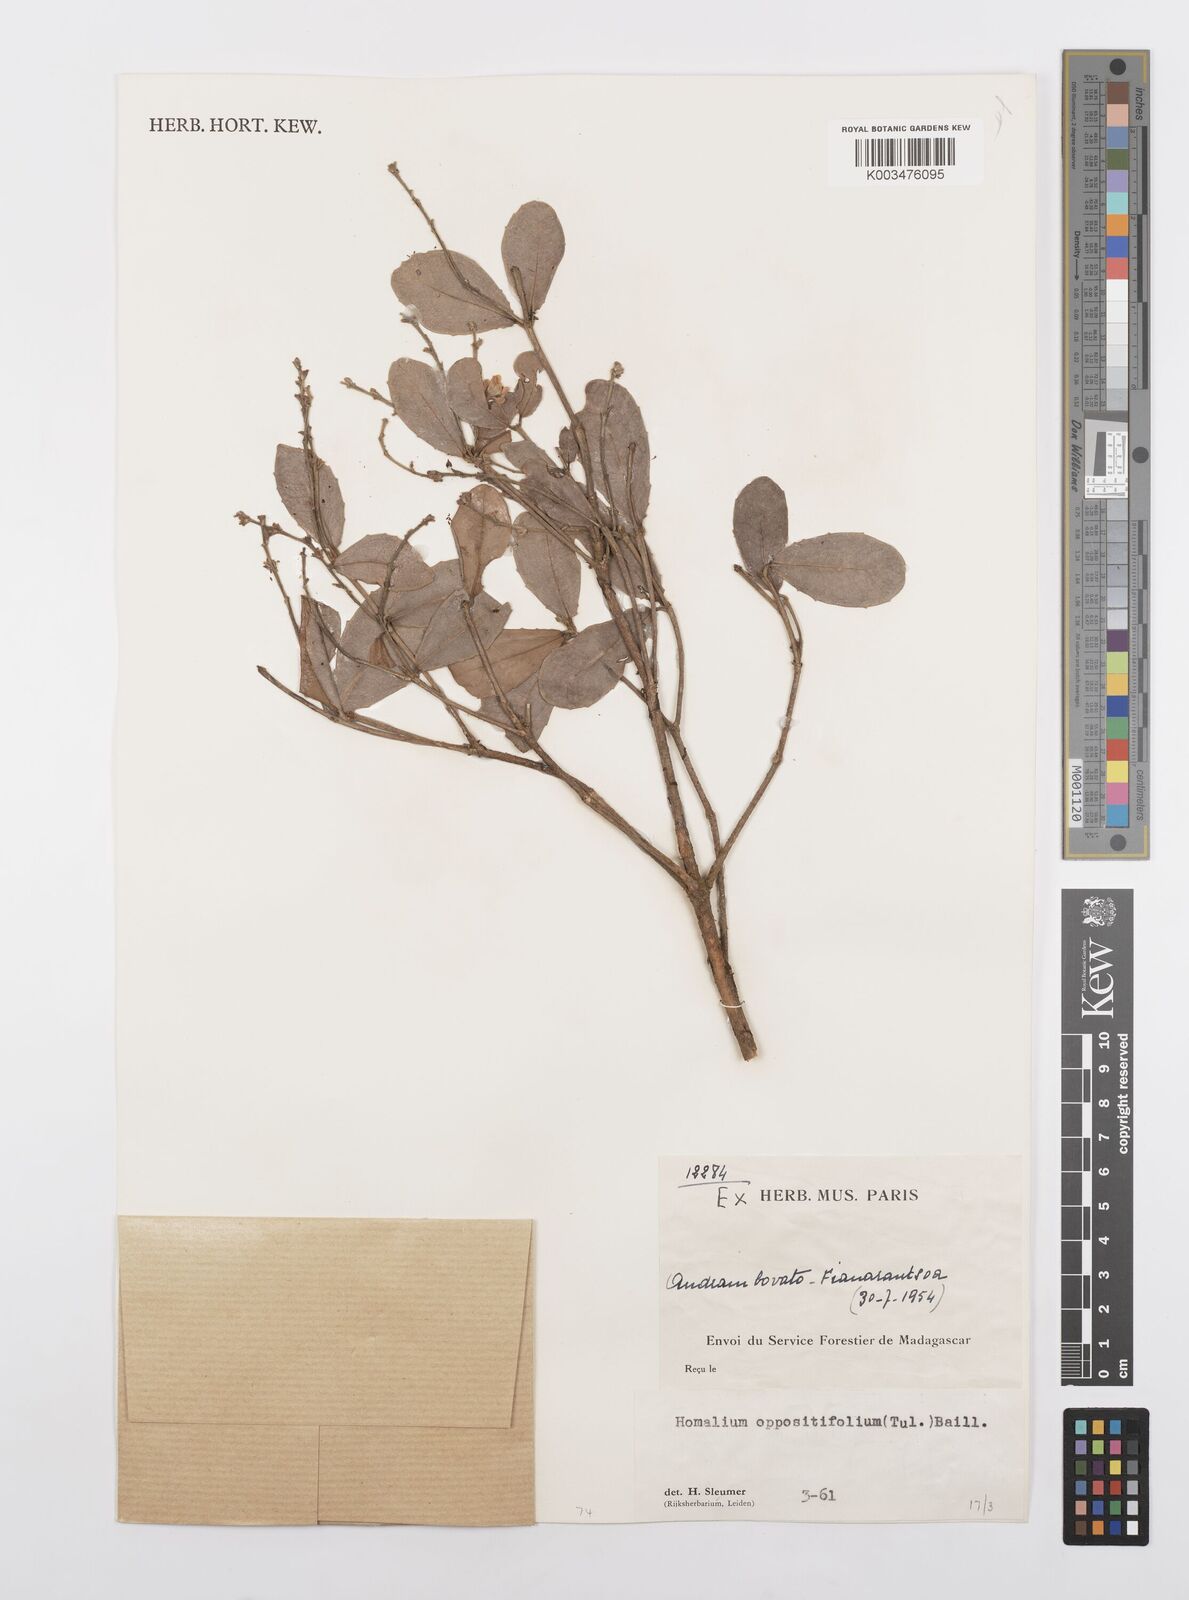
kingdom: Plantae
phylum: Tracheophyta
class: Magnoliopsida
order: Malpighiales
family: Salicaceae
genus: Homalium
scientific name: Homalium oppositifolium
